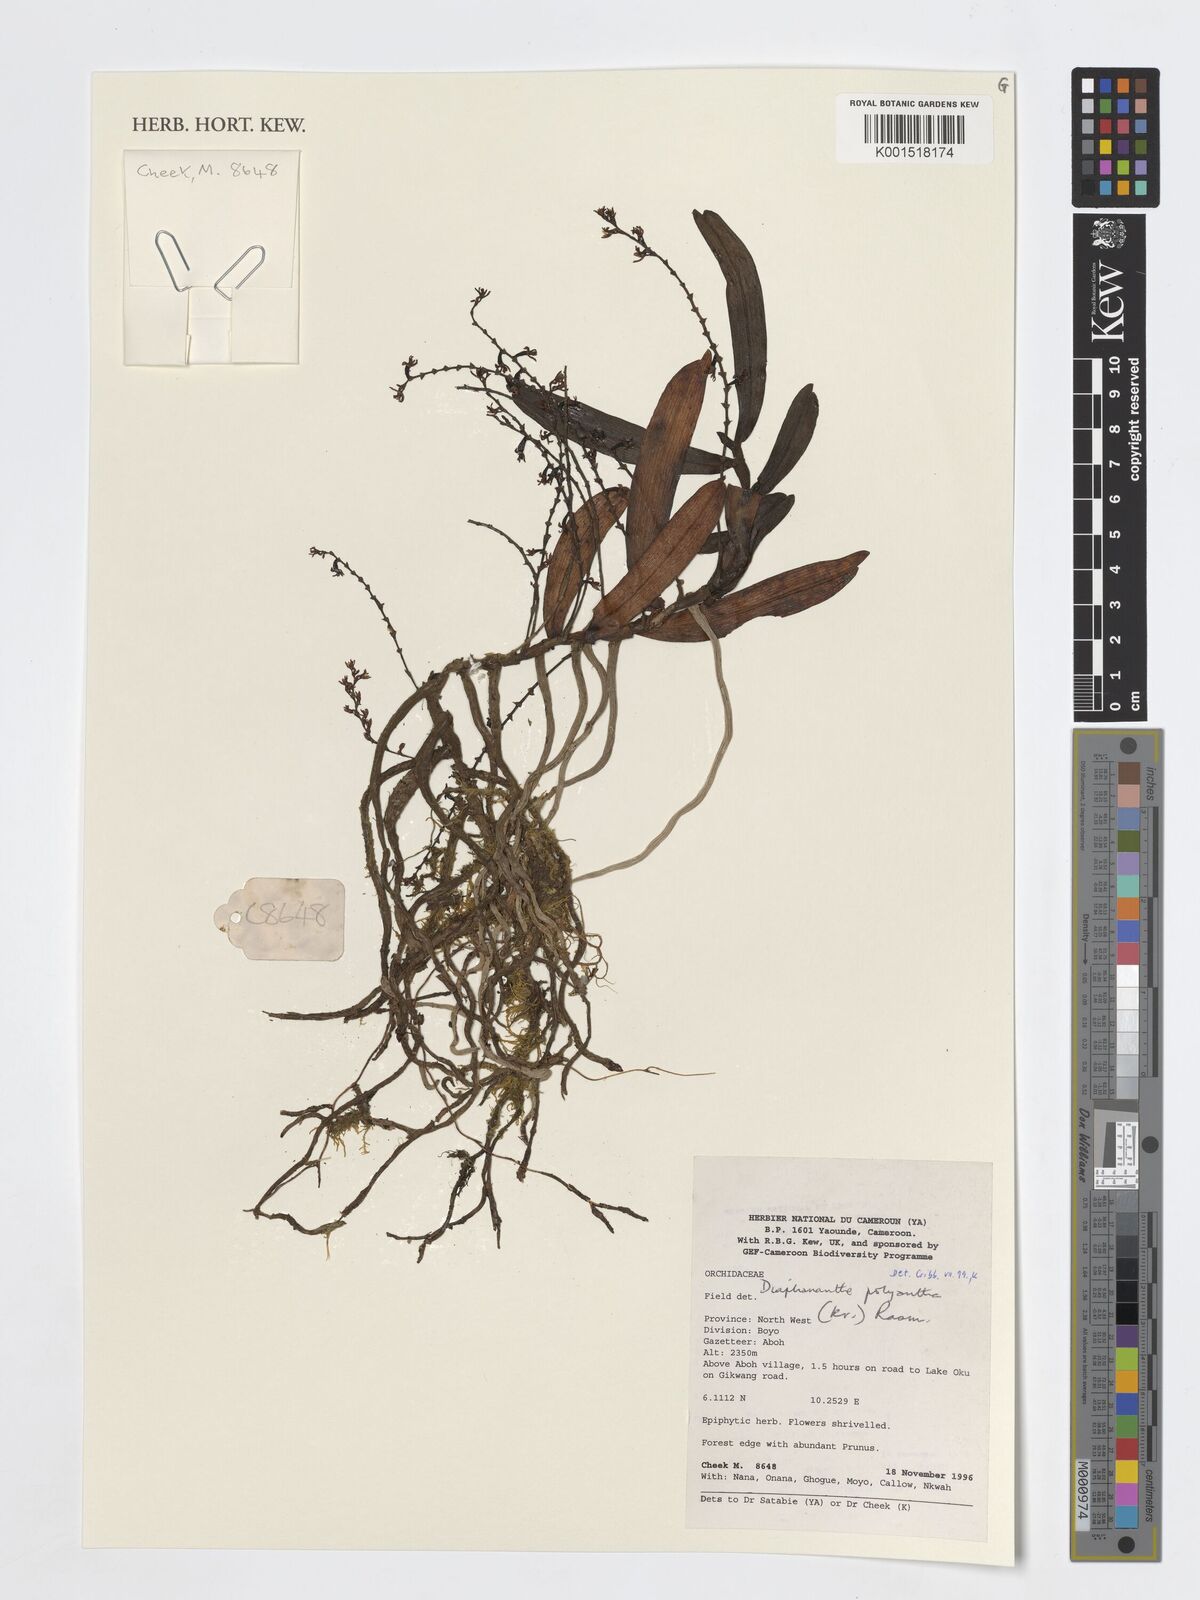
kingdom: Plantae
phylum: Tracheophyta
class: Liliopsida
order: Asparagales
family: Orchidaceae
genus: Rhipidoglossum
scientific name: Rhipidoglossum polyanthum
